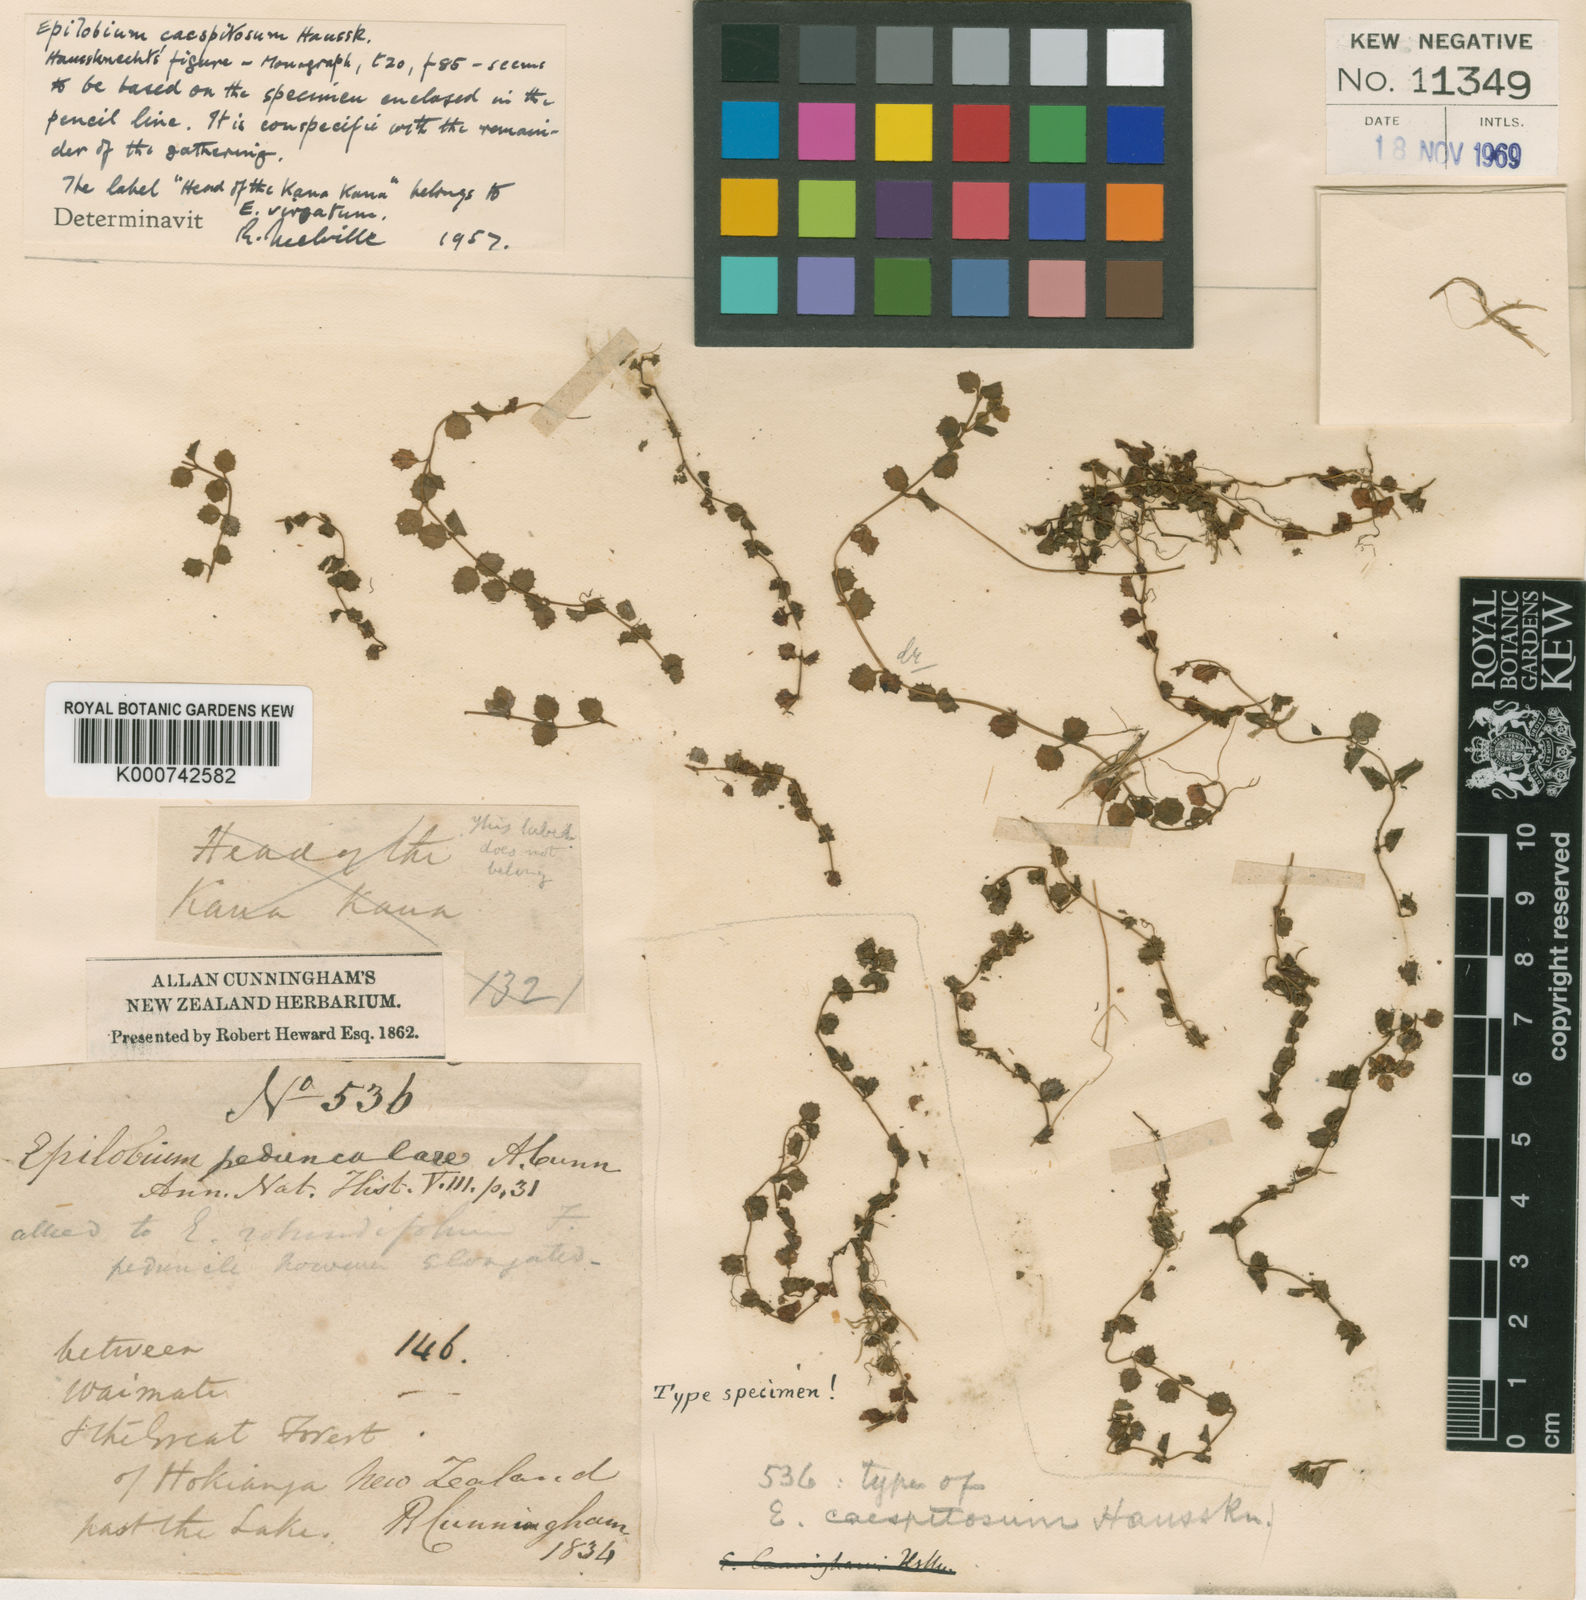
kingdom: Plantae
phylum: Tracheophyta
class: Magnoliopsida
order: Myrtales
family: Onagraceae
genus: Epilobium
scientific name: Epilobium pedunculare
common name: Rockery willowherb
